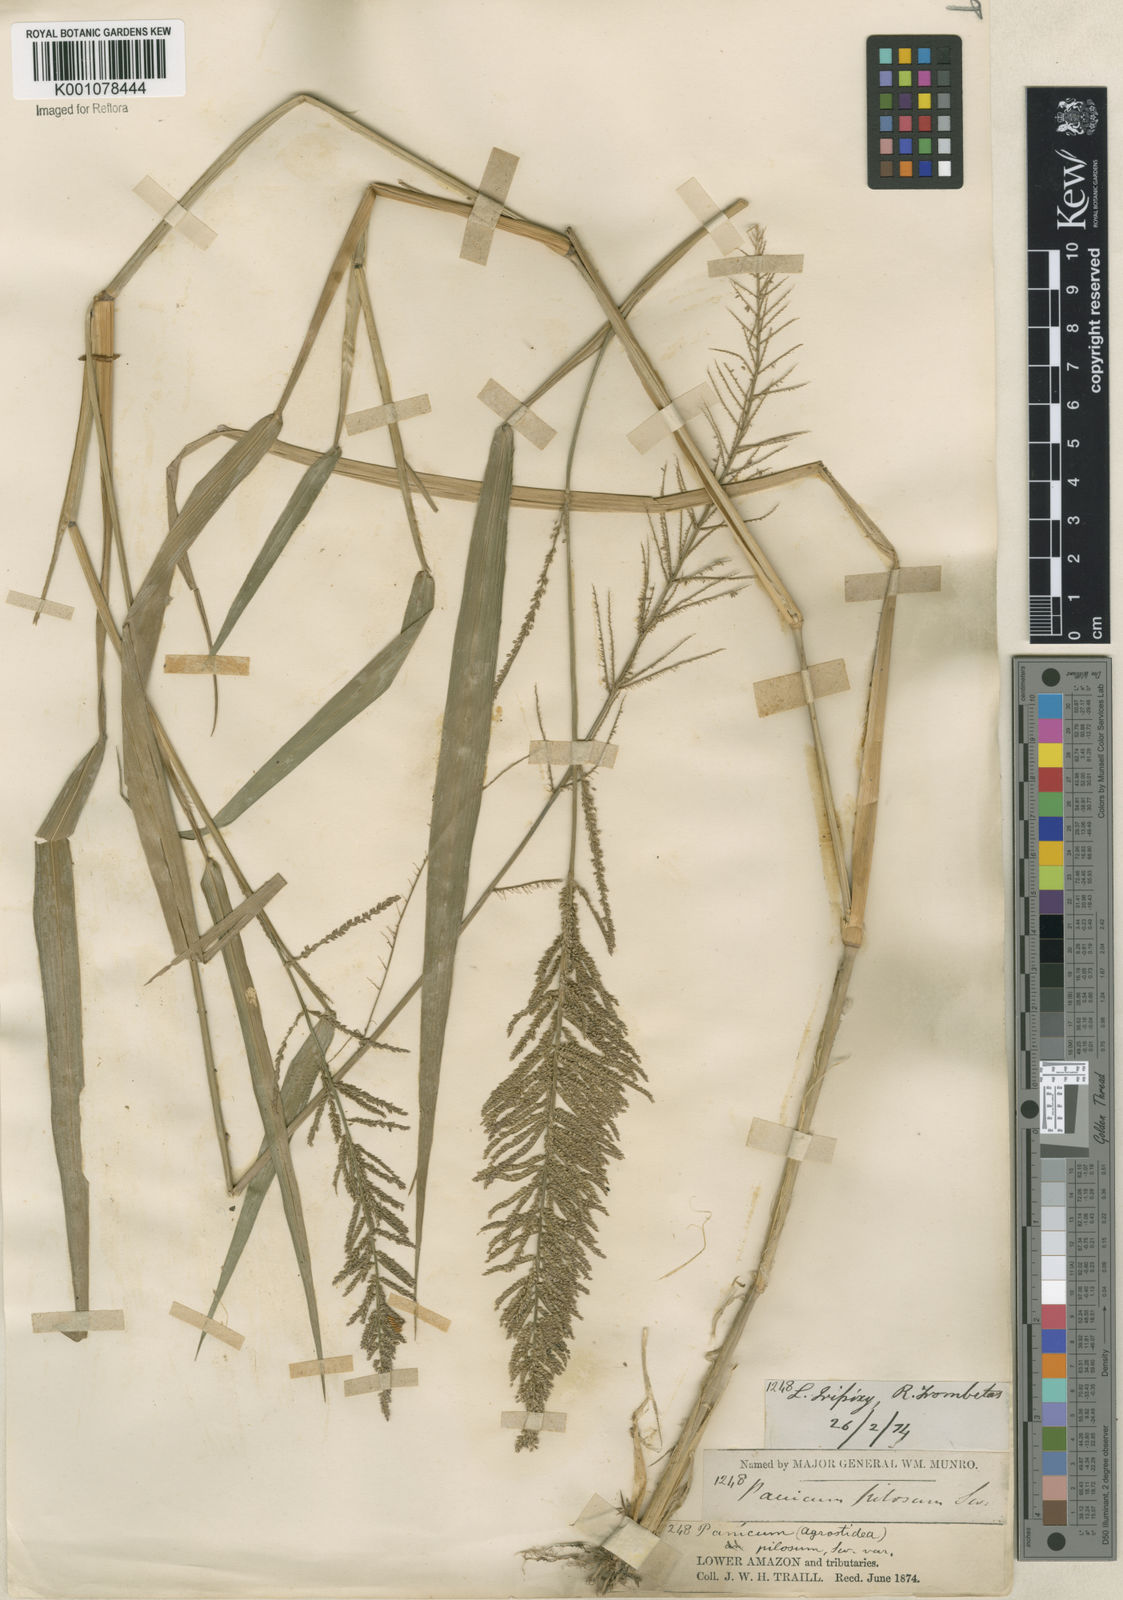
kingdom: Plantae
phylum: Tracheophyta
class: Liliopsida
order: Poales
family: Poaceae
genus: Rugoloa
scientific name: Rugoloa pilosa
